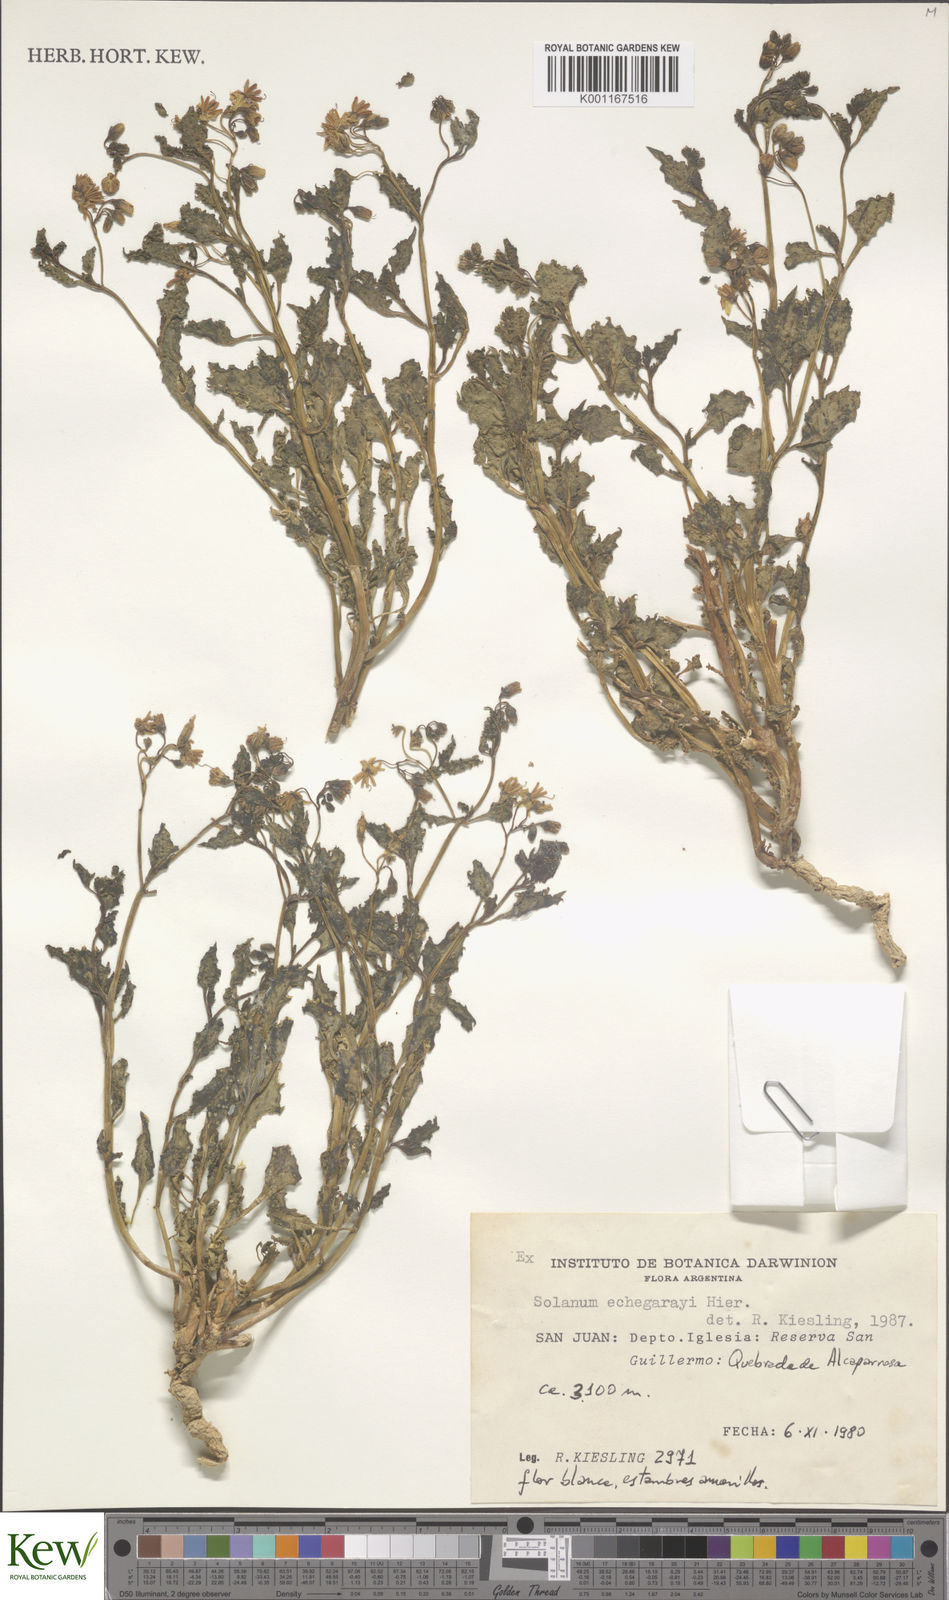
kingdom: Plantae
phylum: Tracheophyta
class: Magnoliopsida
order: Solanales
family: Solanaceae
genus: Solanum
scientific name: Solanum echegarayi
